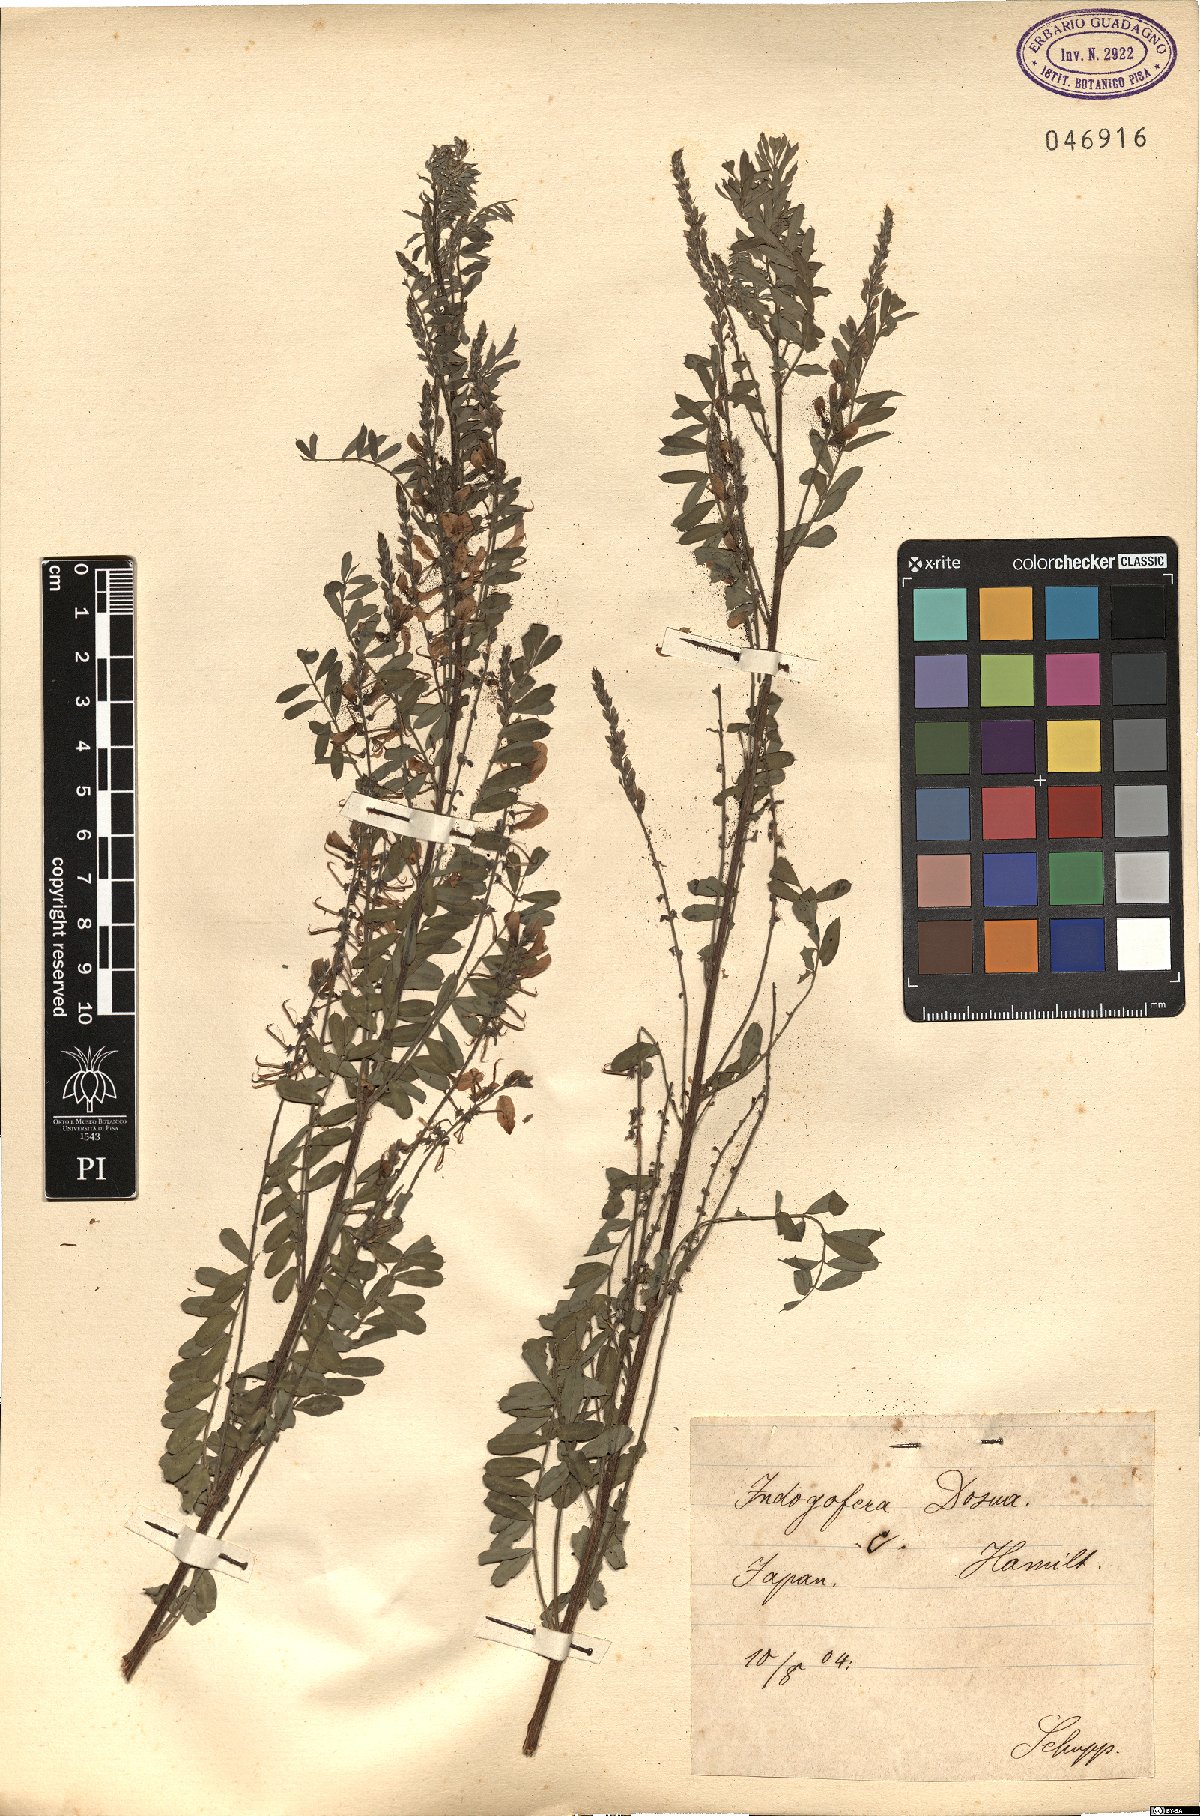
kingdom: Plantae
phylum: Tracheophyta
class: Magnoliopsida
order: Fabales
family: Fabaceae
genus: Indigofera
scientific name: Indigofera
